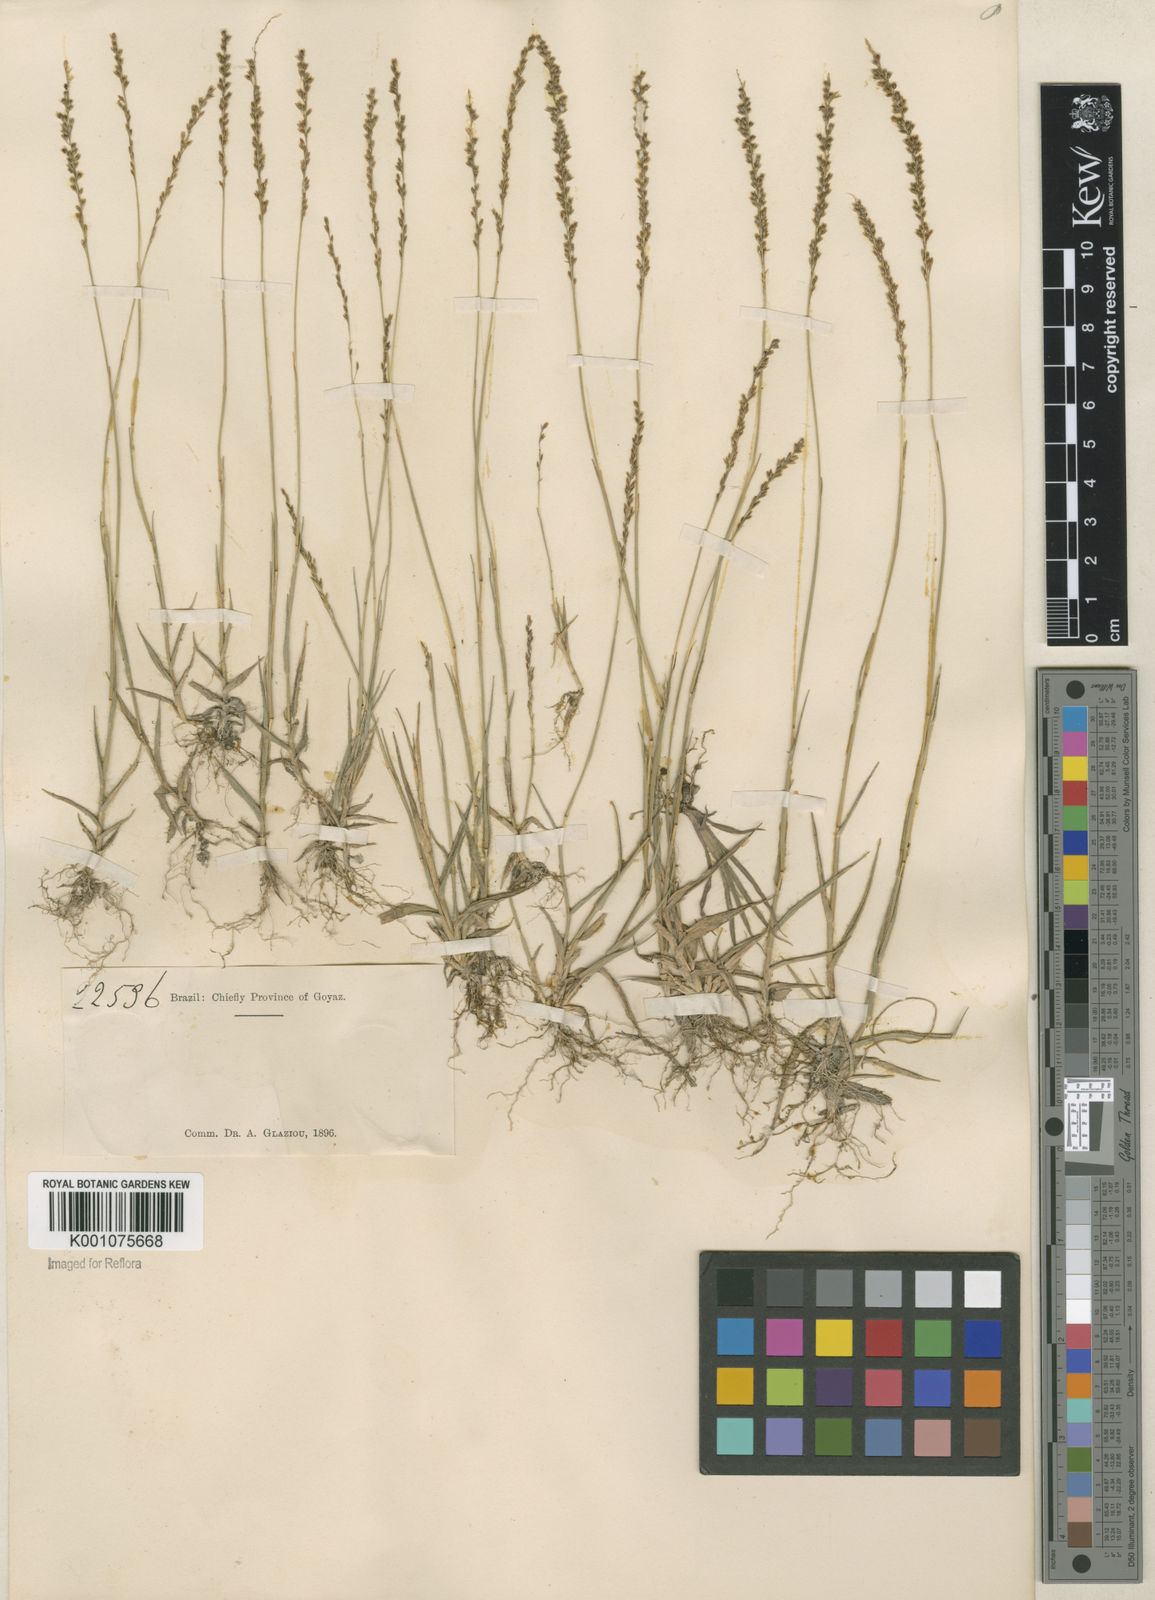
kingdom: Plantae
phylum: Tracheophyta
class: Liliopsida
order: Poales
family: Poaceae
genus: Sporobolus
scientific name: Sporobolus pilifer
